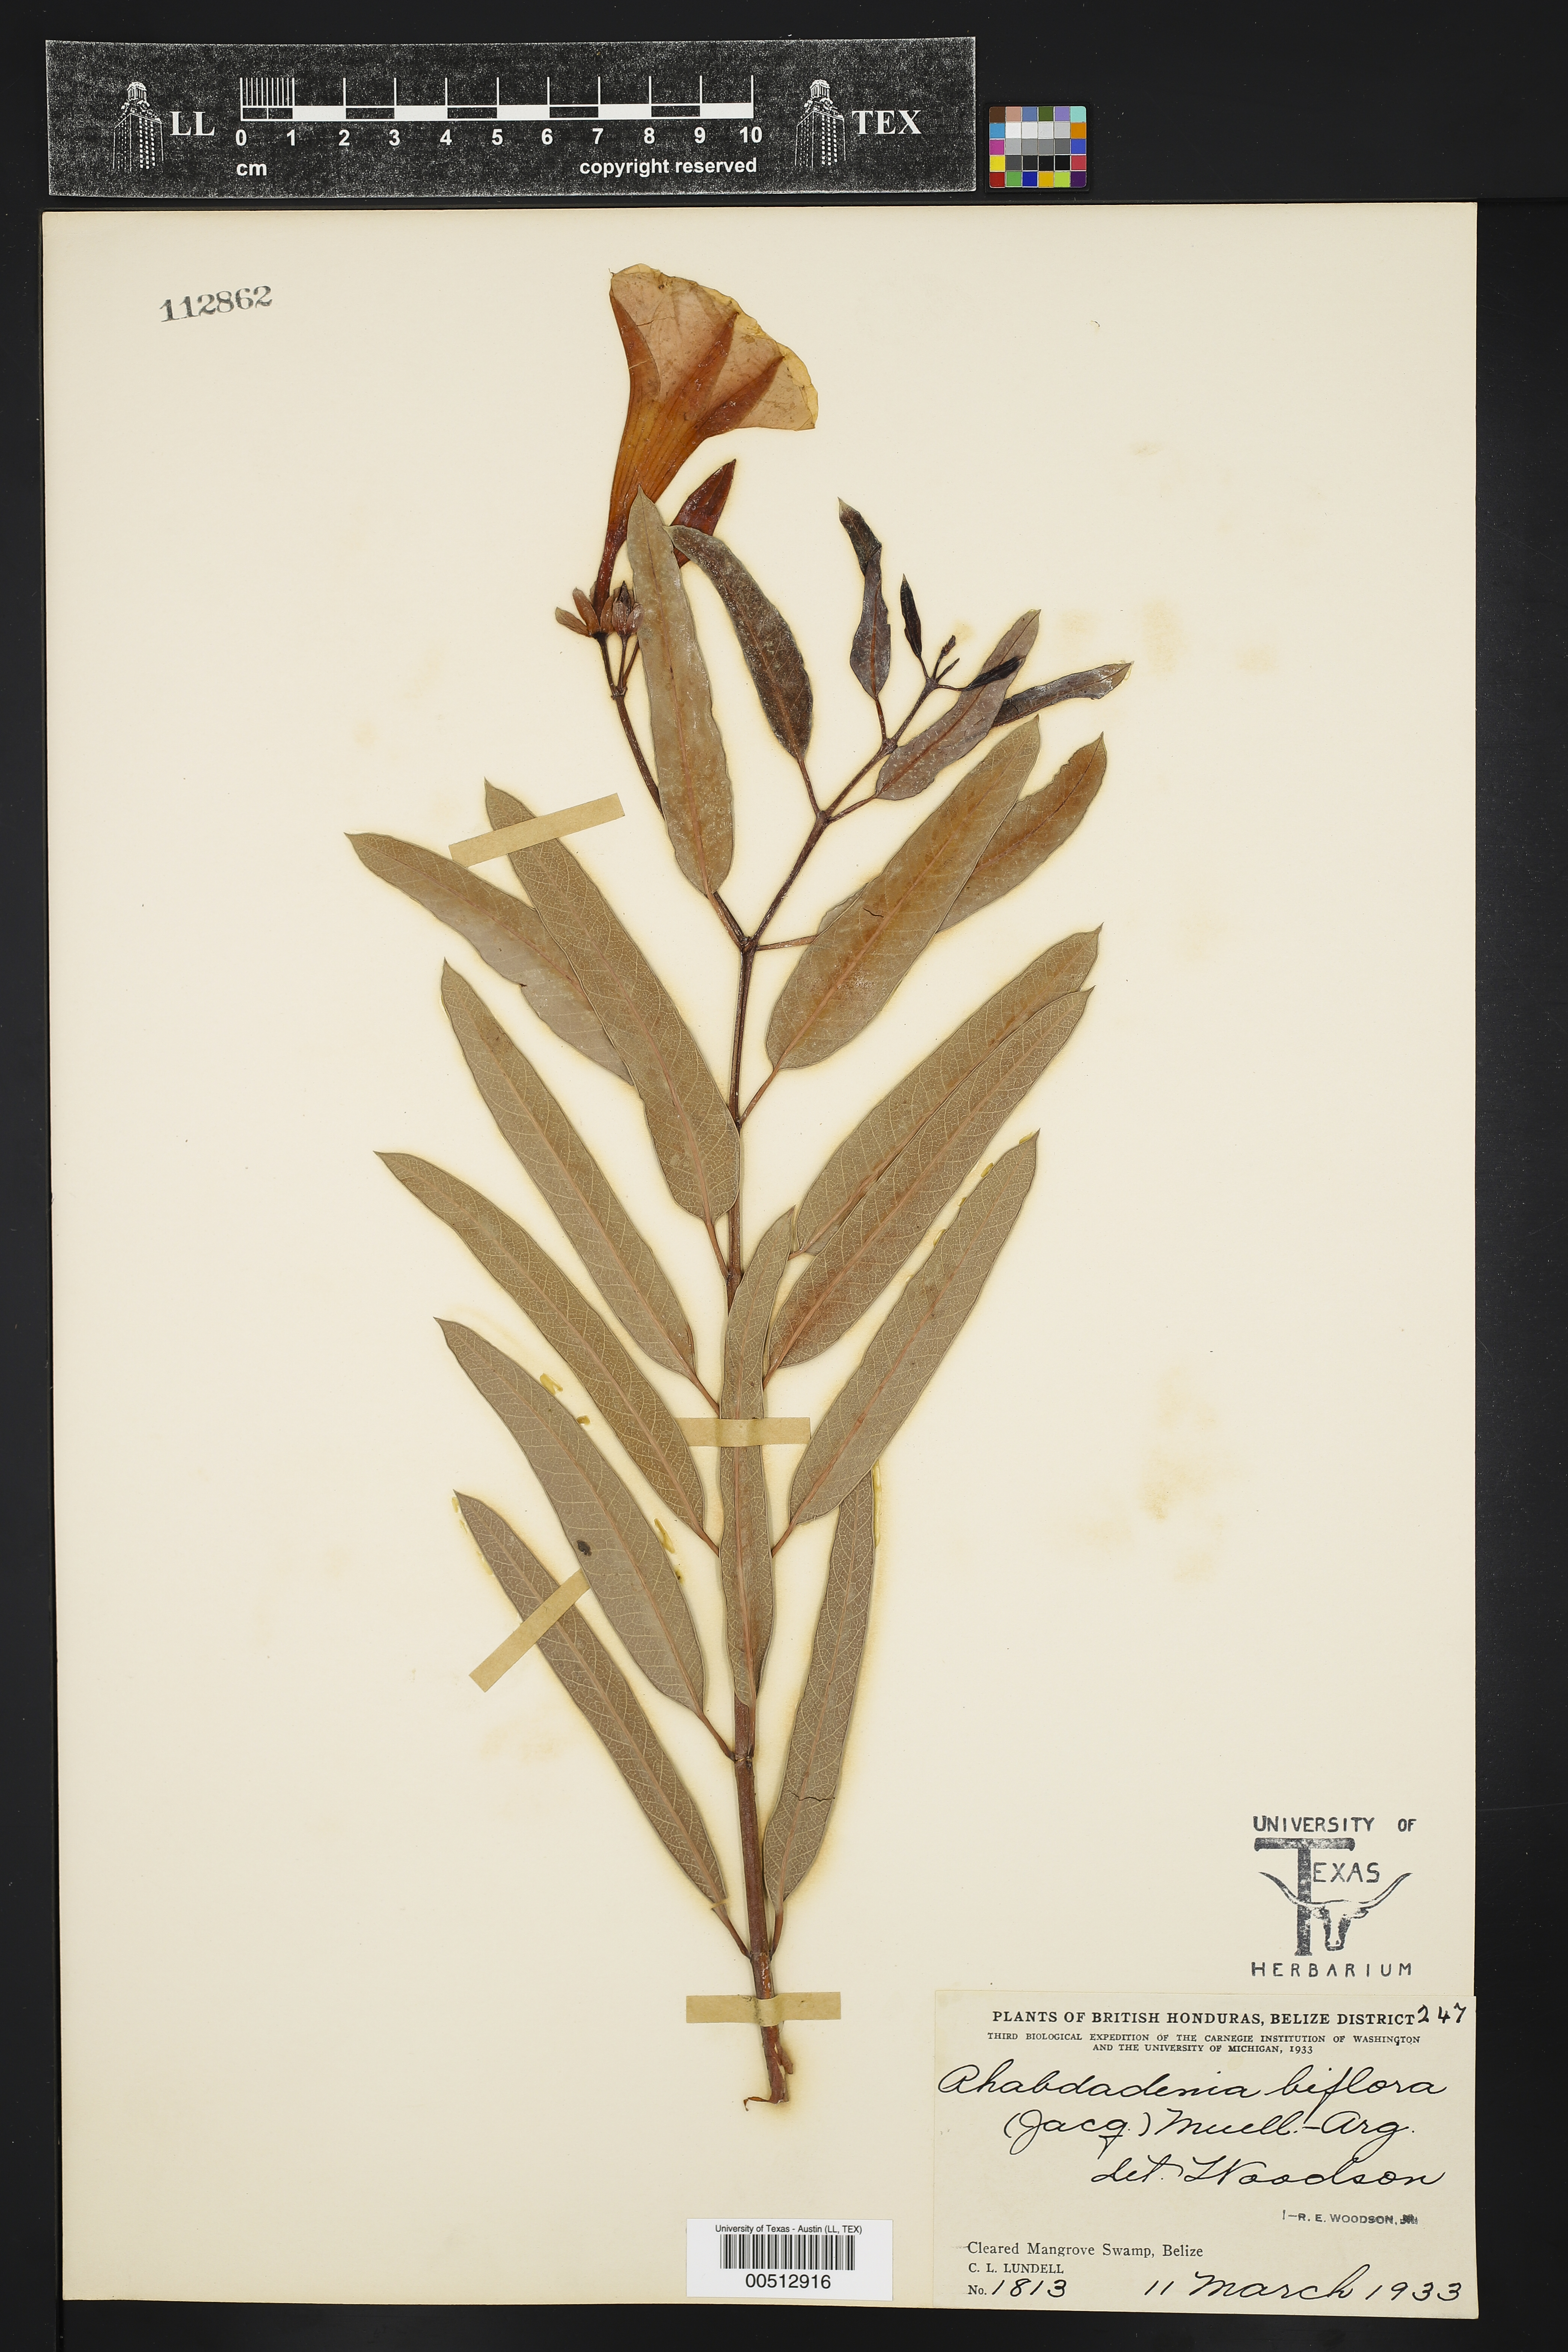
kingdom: Plantae
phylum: Tracheophyta
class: Magnoliopsida
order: Gentianales
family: Apocynaceae
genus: Rhabdadenia
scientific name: Rhabdadenia biflora
